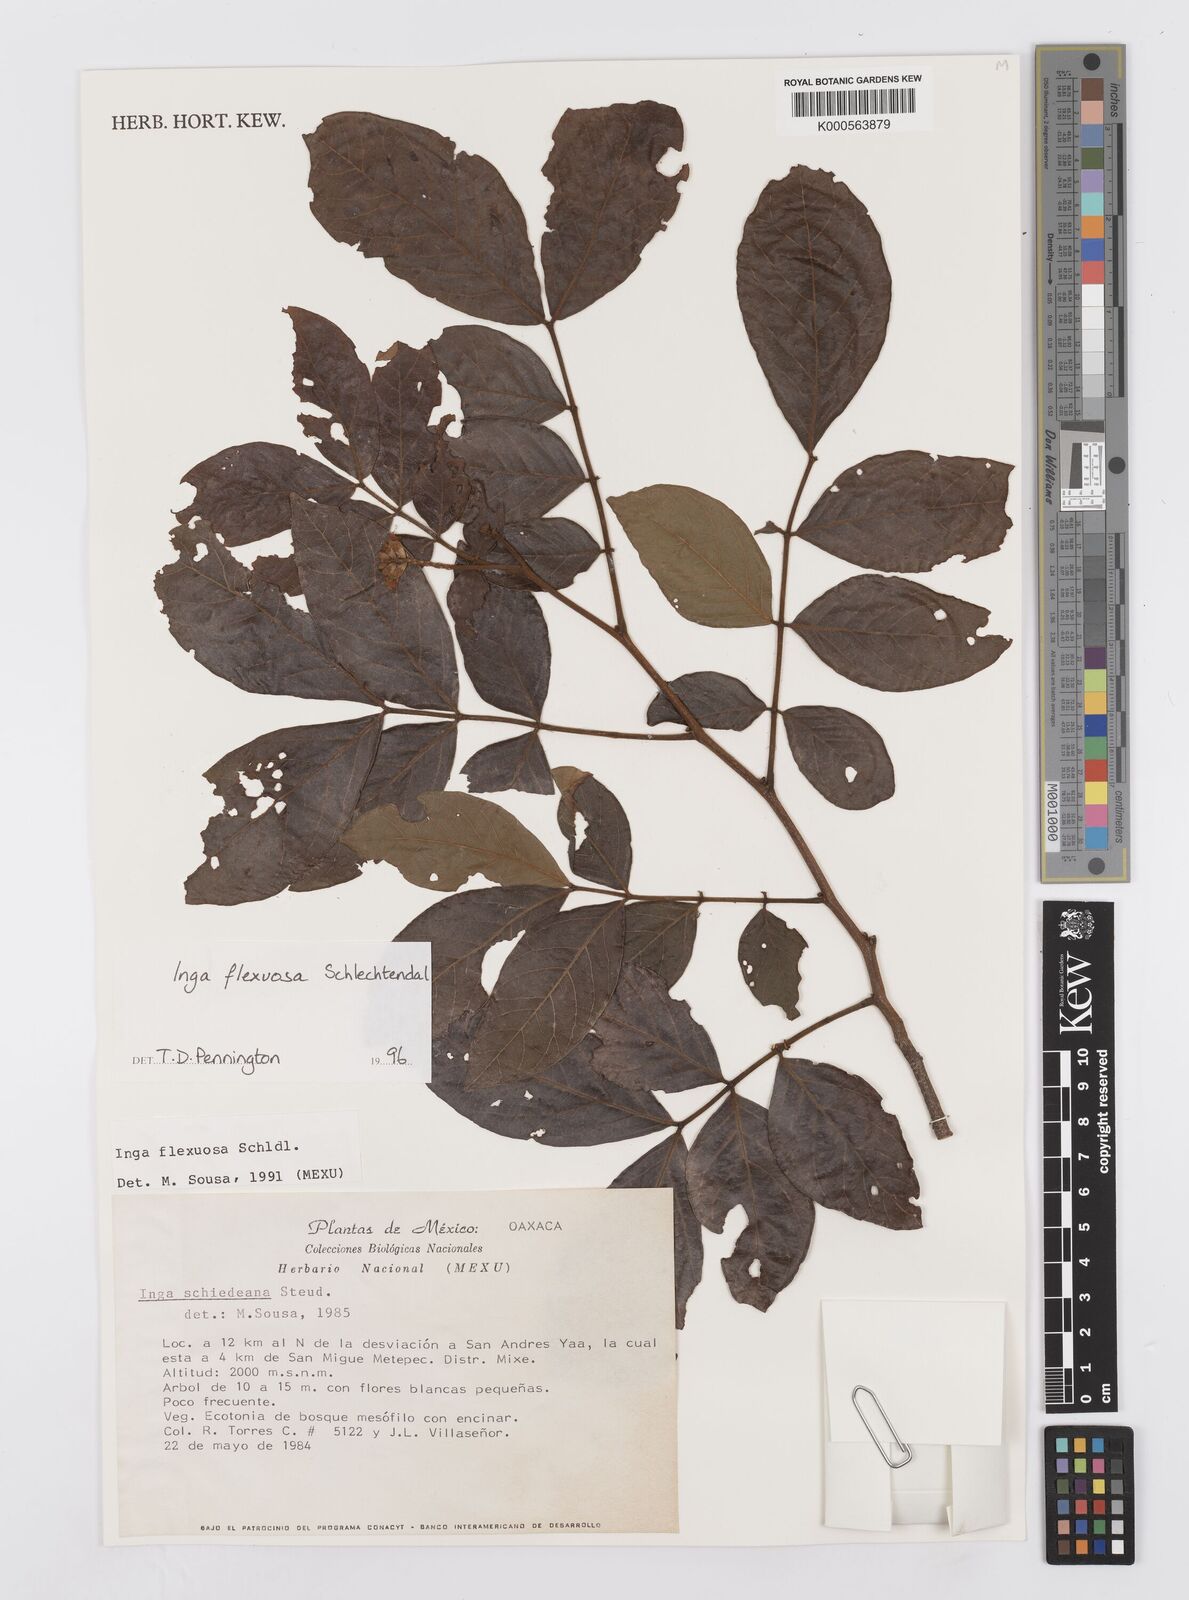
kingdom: Plantae
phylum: Tracheophyta
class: Magnoliopsida
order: Fabales
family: Fabaceae
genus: Inga
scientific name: Inga flexuosa
